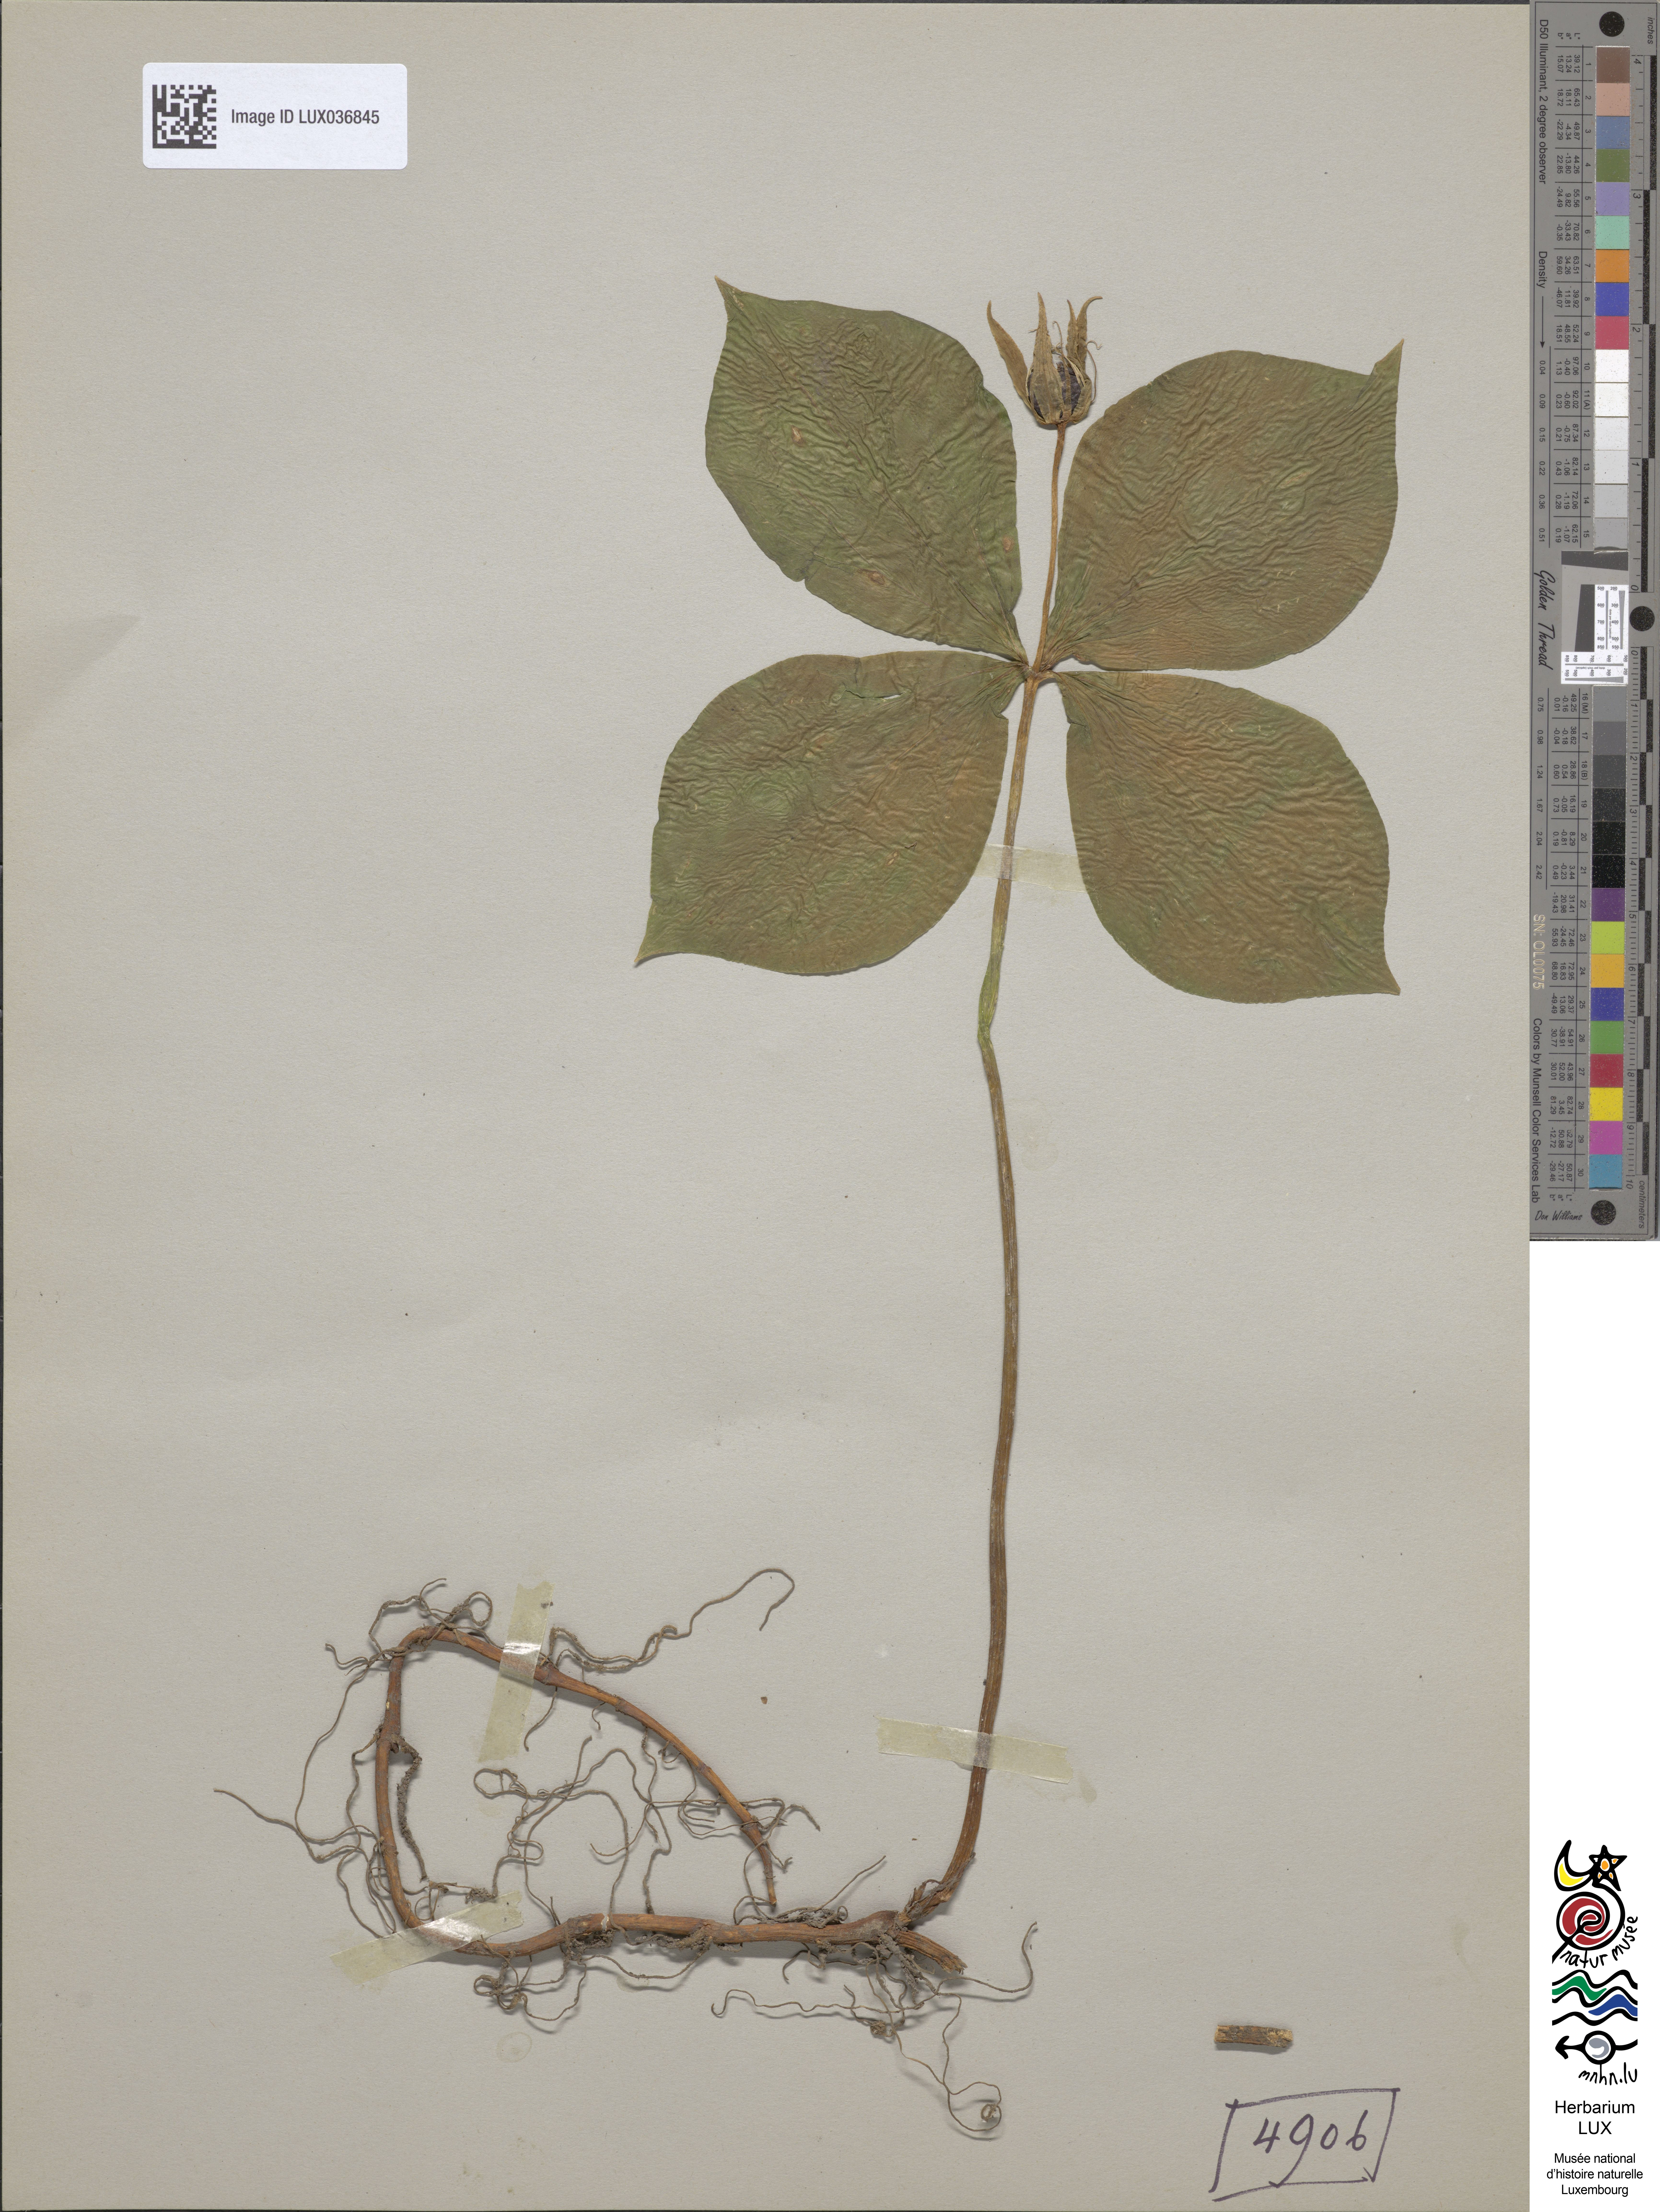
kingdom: Plantae
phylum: Tracheophyta
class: Liliopsida
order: Liliales
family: Melanthiaceae
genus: Paris
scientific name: Paris quadrifolia
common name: Herb-paris
